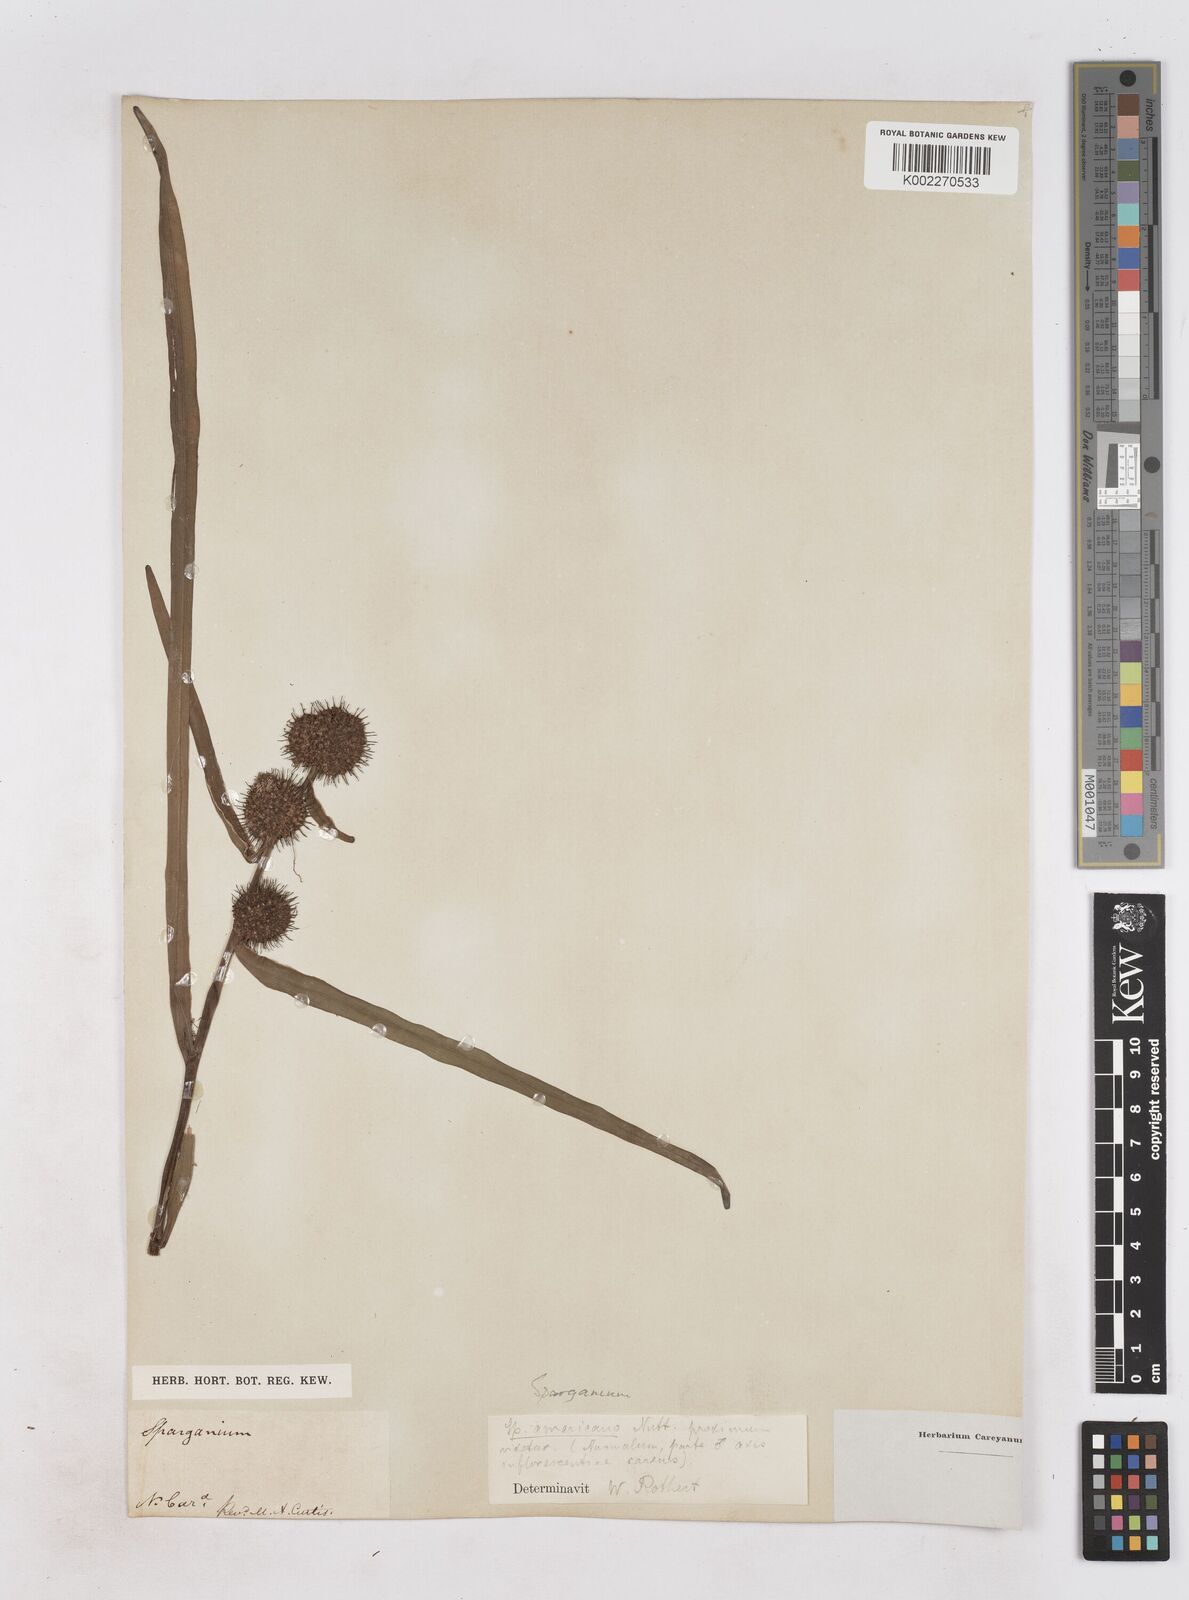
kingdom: Plantae
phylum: Tracheophyta
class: Liliopsida
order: Poales
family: Typhaceae
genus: Sparganium
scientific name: Sparganium americanum
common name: American burreed
